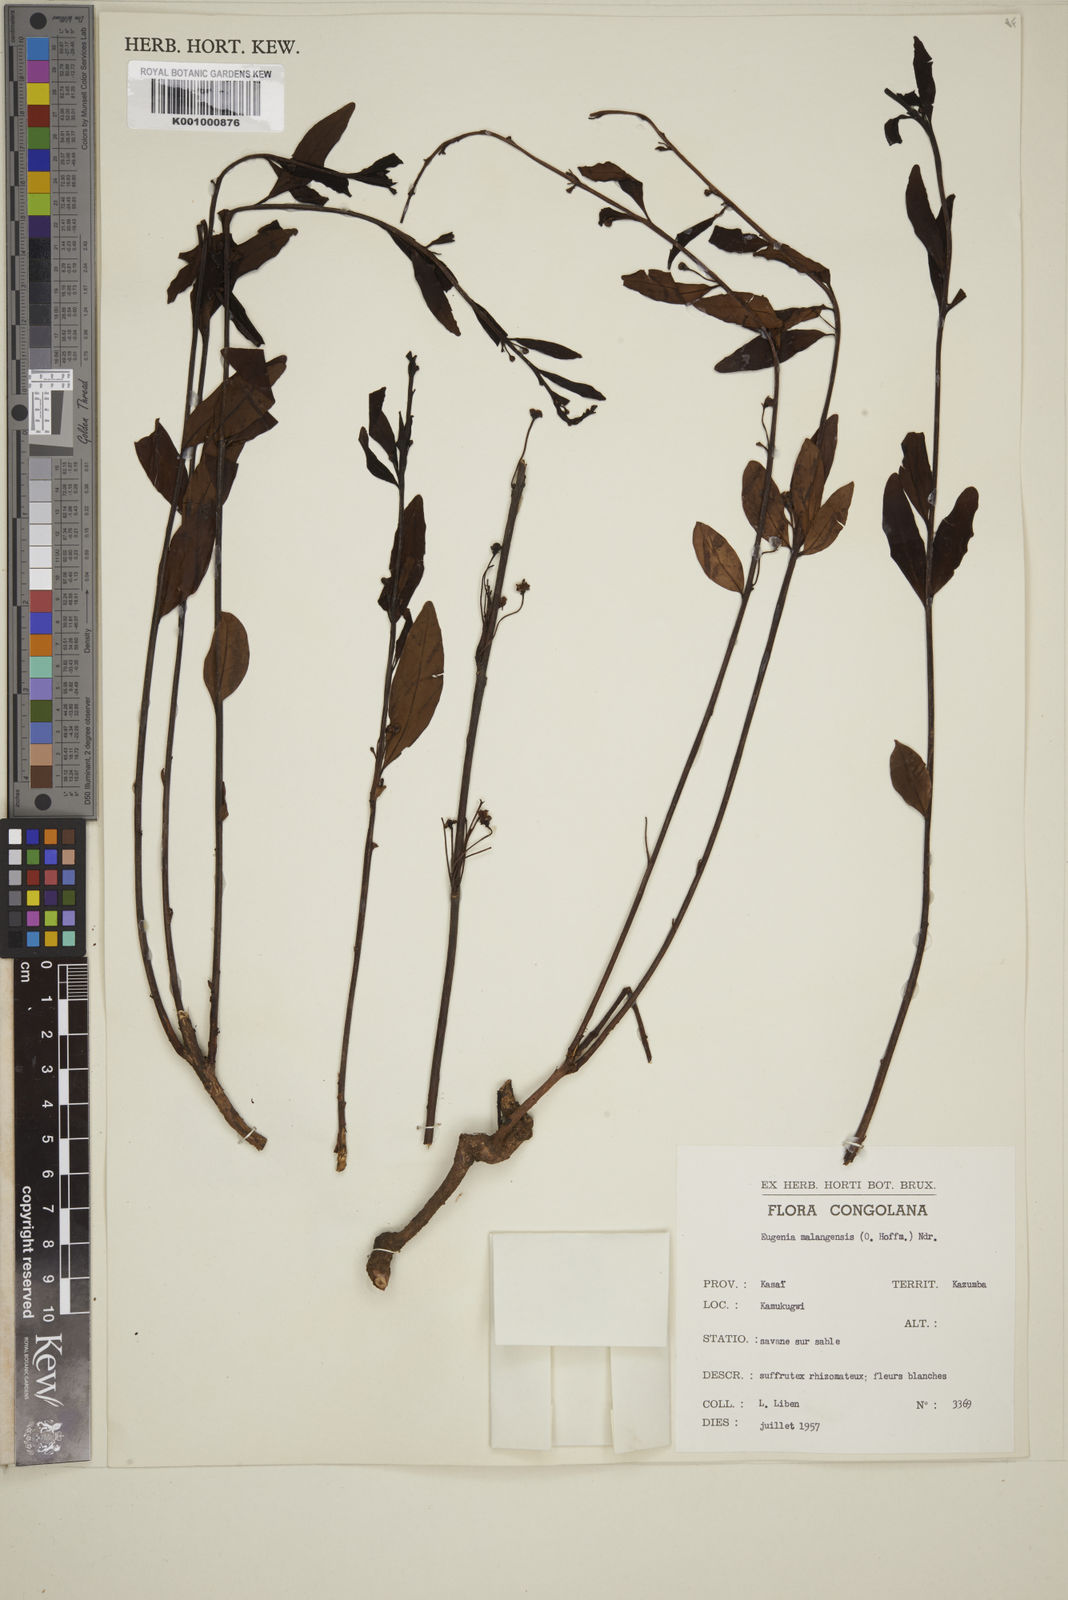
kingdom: Plantae
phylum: Tracheophyta
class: Magnoliopsida
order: Myrtales
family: Myrtaceae
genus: Eugenia
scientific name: Eugenia malangensis
